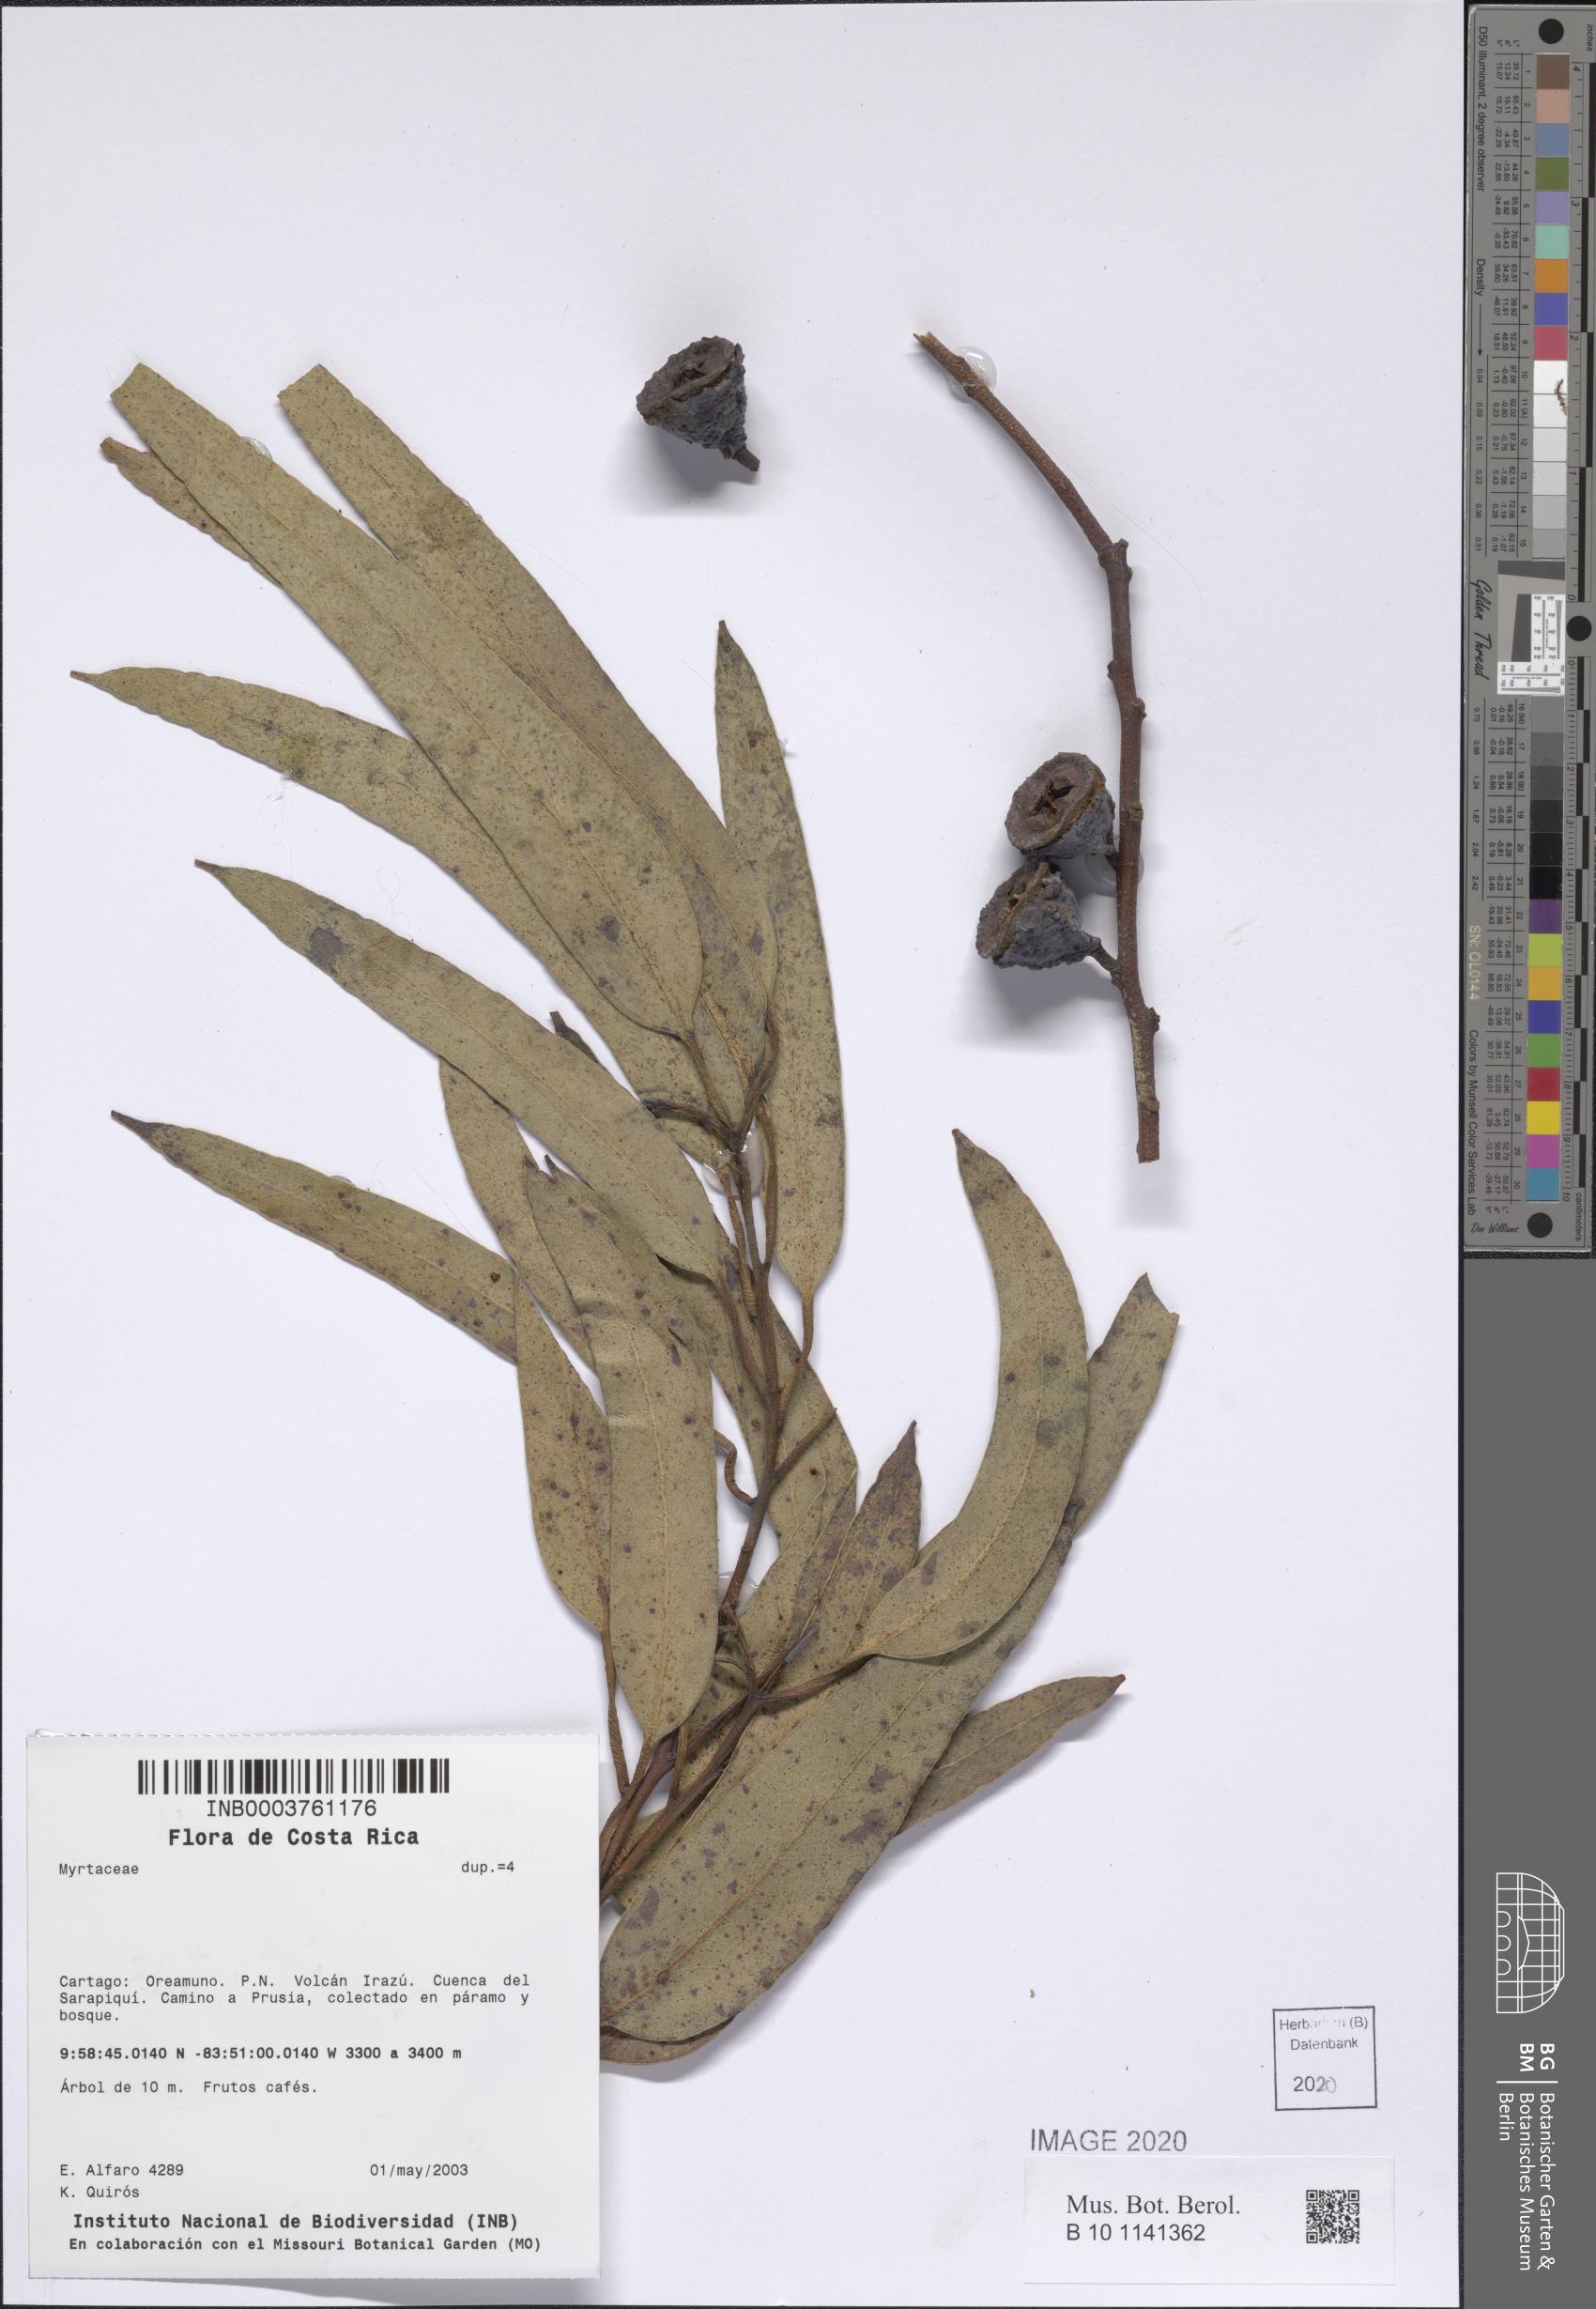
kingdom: Plantae
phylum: Tracheophyta
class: Magnoliopsida
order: Myrtales
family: Myrtaceae
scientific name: Myrtaceae
